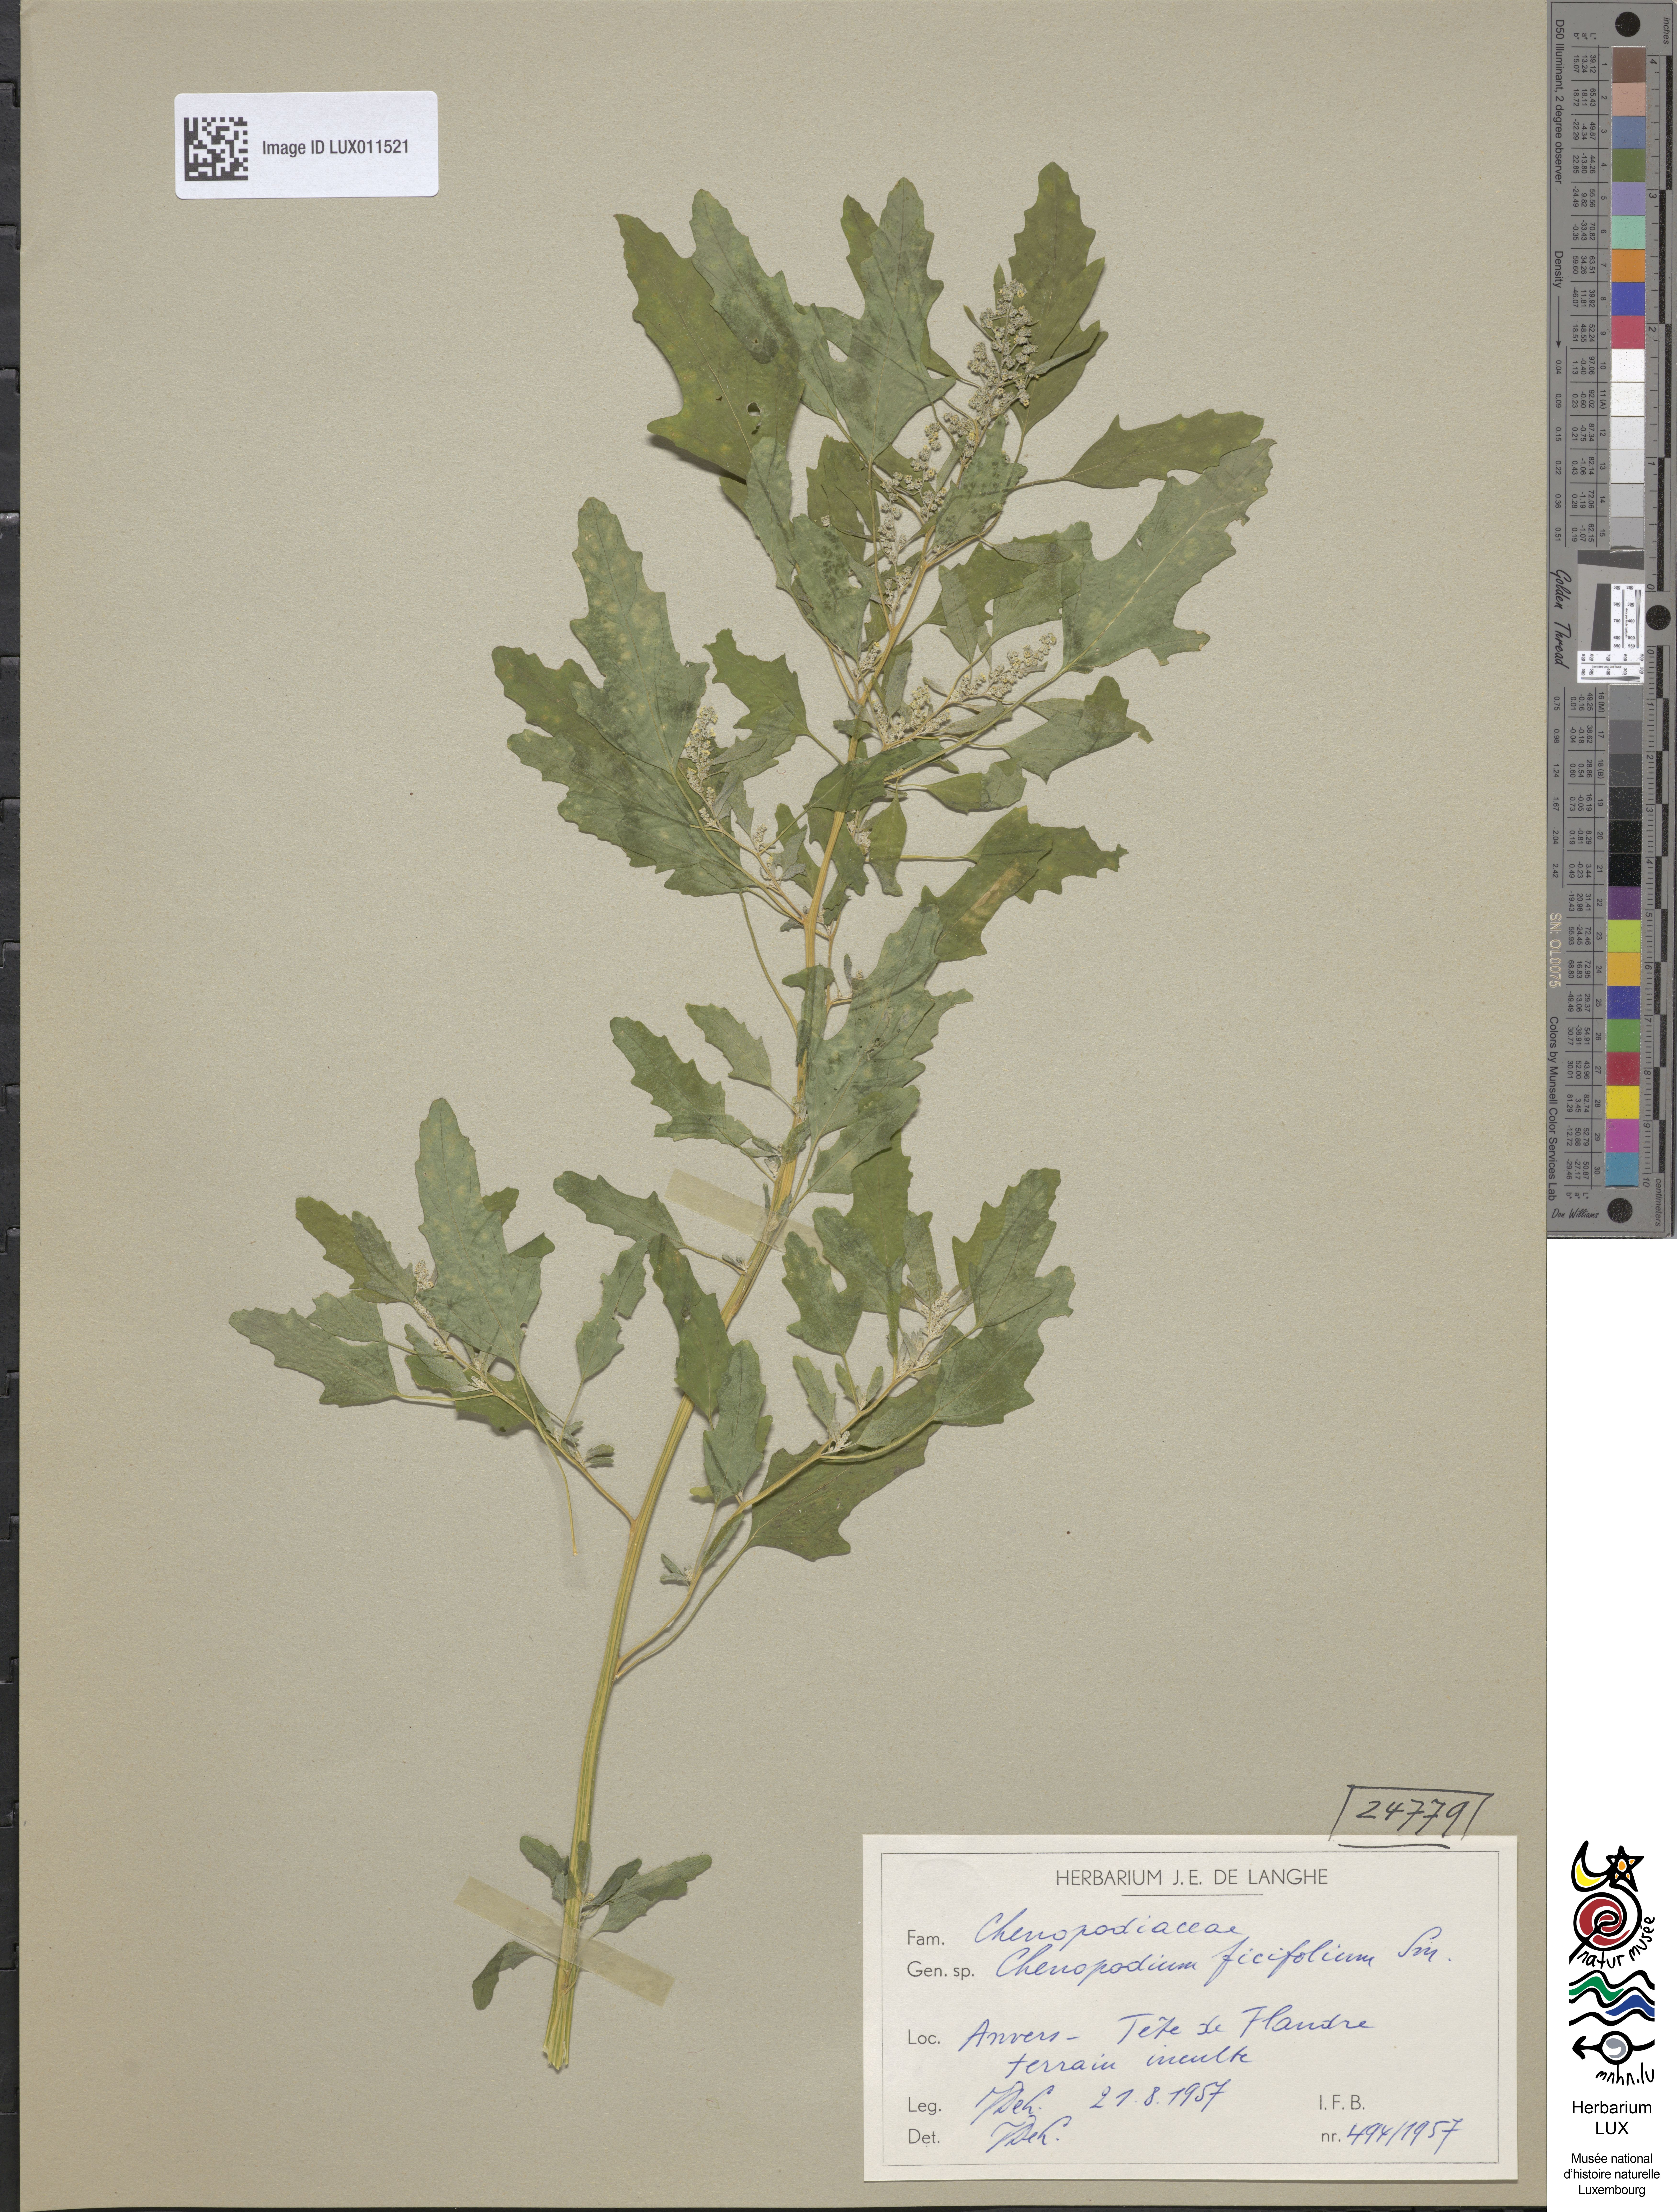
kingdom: Plantae
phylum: Tracheophyta
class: Magnoliopsida
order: Caryophyllales
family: Amaranthaceae
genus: Chenopodium
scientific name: Chenopodium ficifolium
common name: Fig-leaved goosefoot
